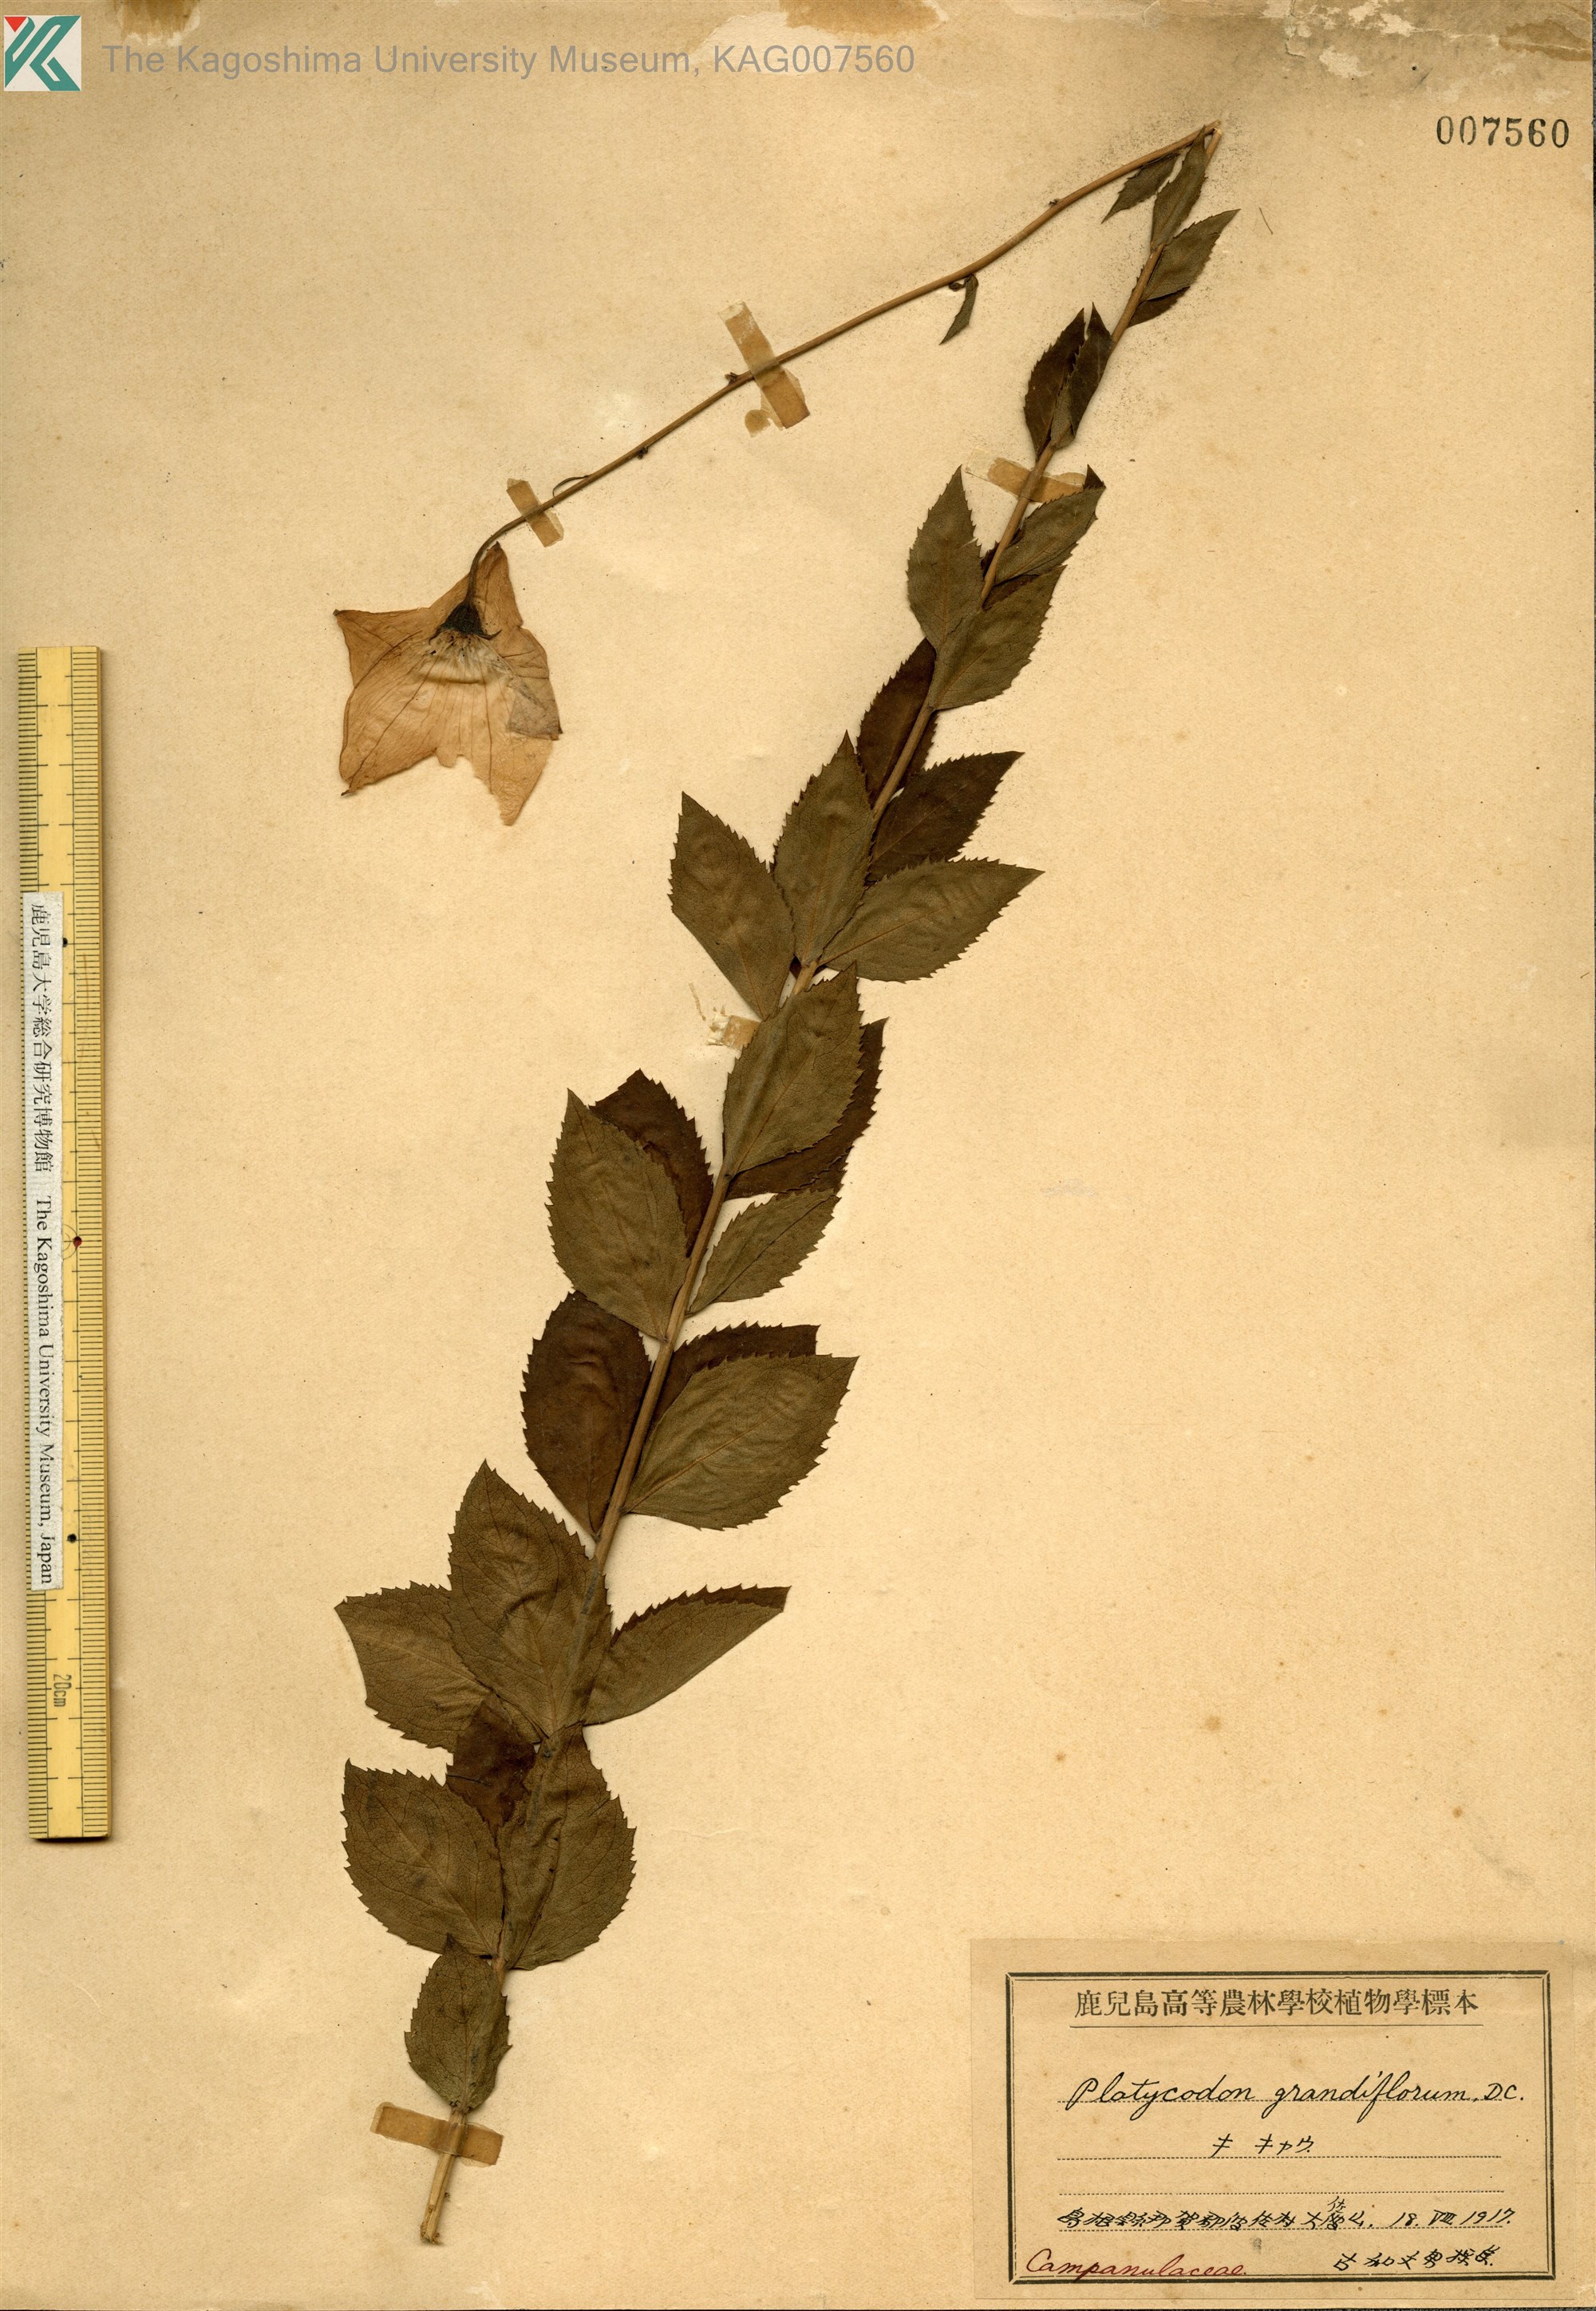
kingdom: Plantae
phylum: Tracheophyta
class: Magnoliopsida
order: Asterales
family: Campanulaceae
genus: Platycodon
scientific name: Platycodon grandiflorus
